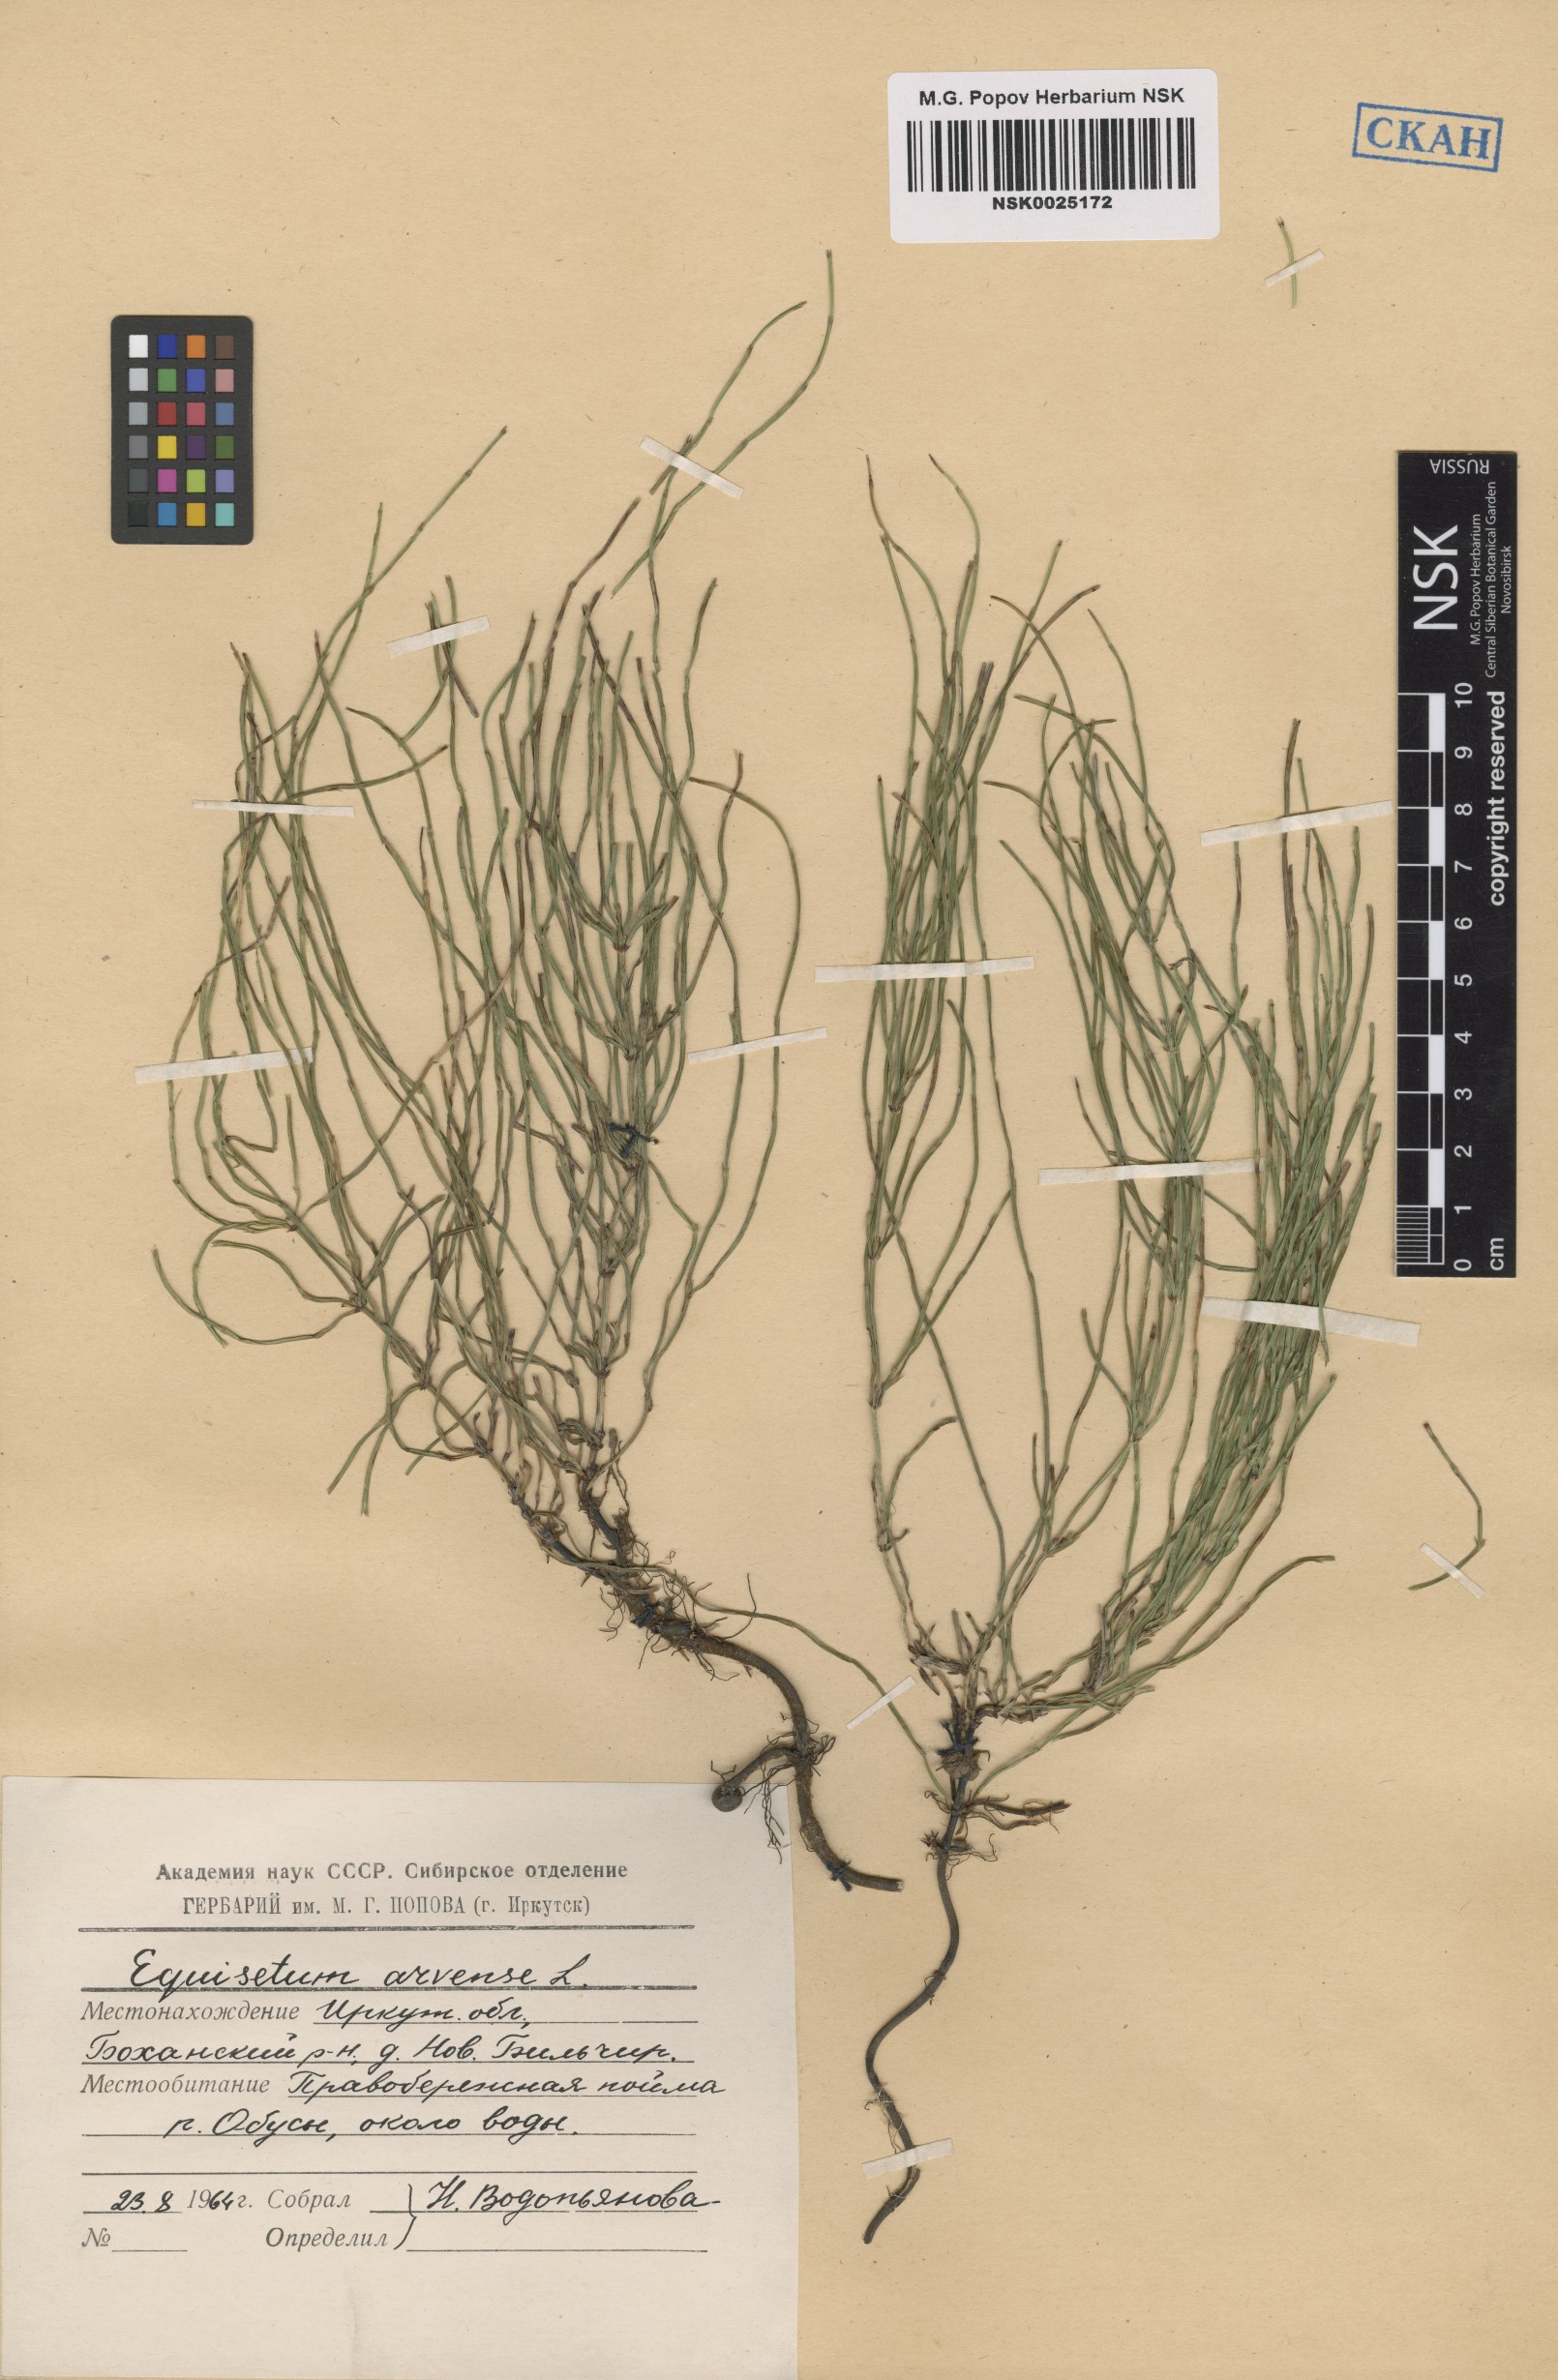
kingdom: Plantae
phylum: Tracheophyta
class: Polypodiopsida
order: Equisetales
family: Equisetaceae
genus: Equisetum
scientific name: Equisetum arvense
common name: Field horsetail
